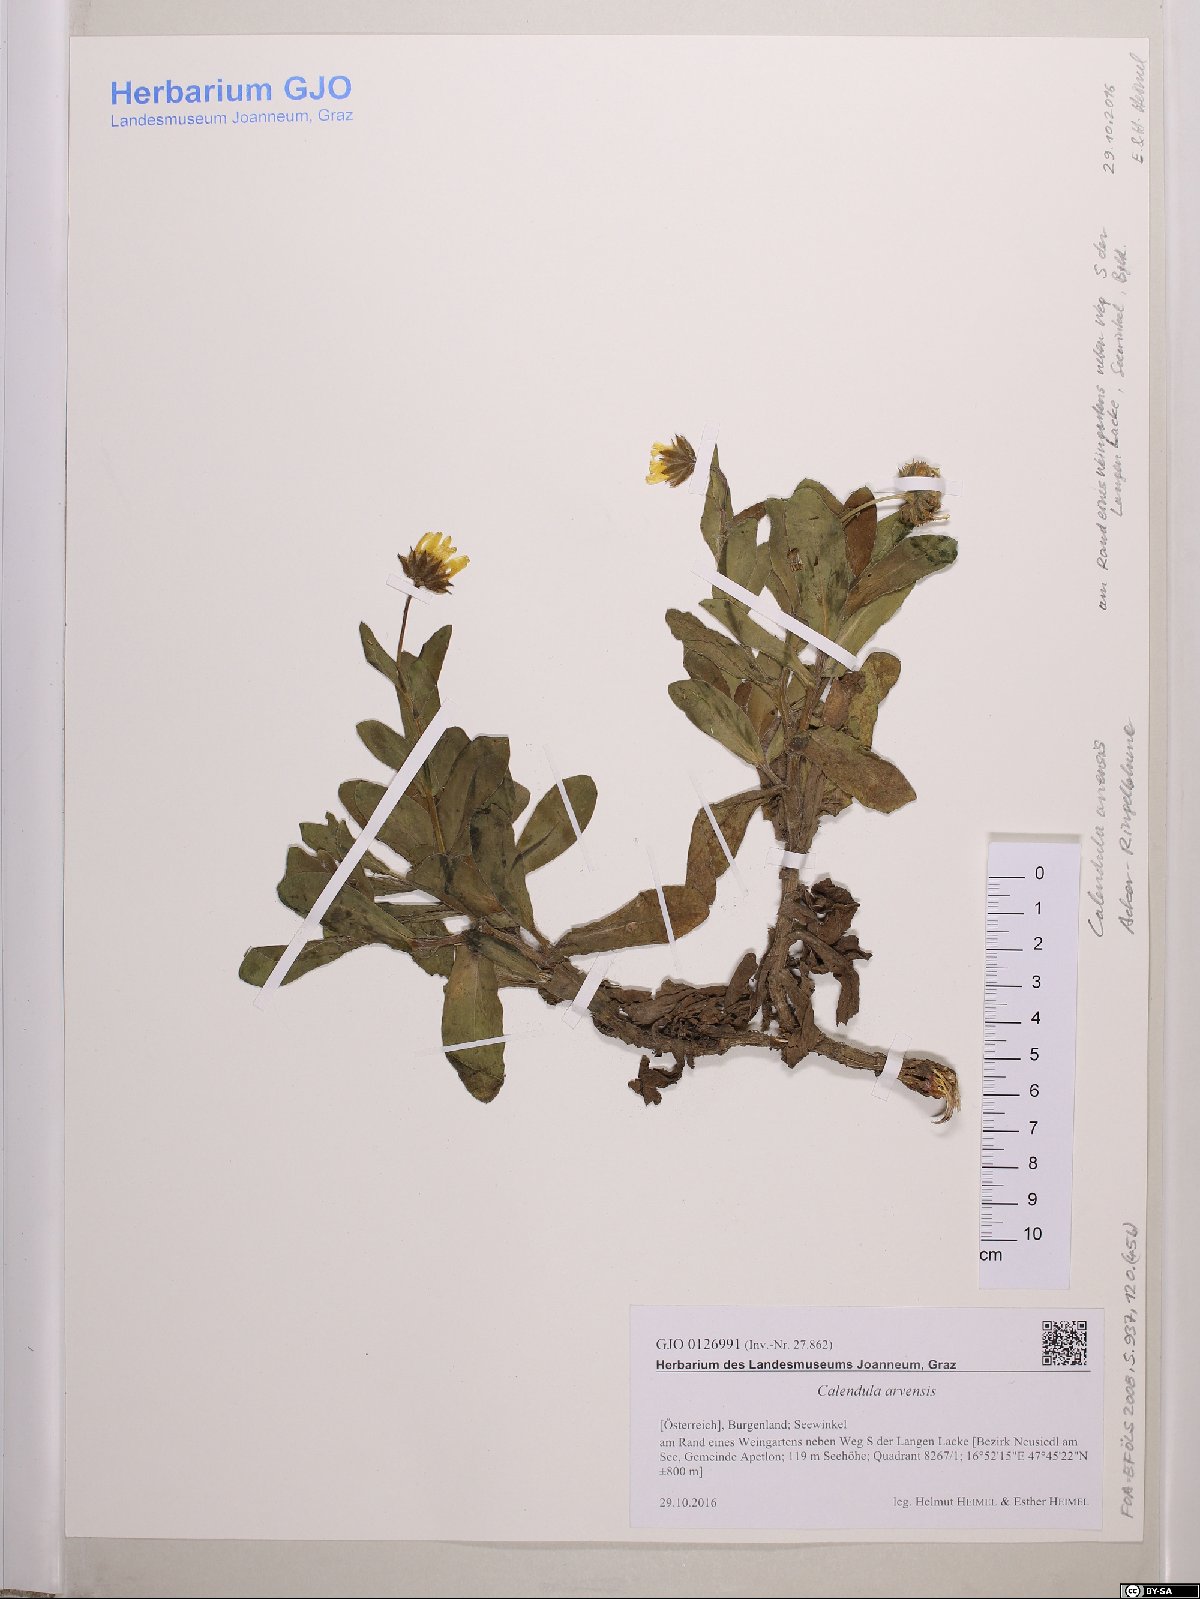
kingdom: Plantae
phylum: Tracheophyta
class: Magnoliopsida
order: Asterales
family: Asteraceae
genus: Calendula
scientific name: Calendula arvensis
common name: Field marigold
